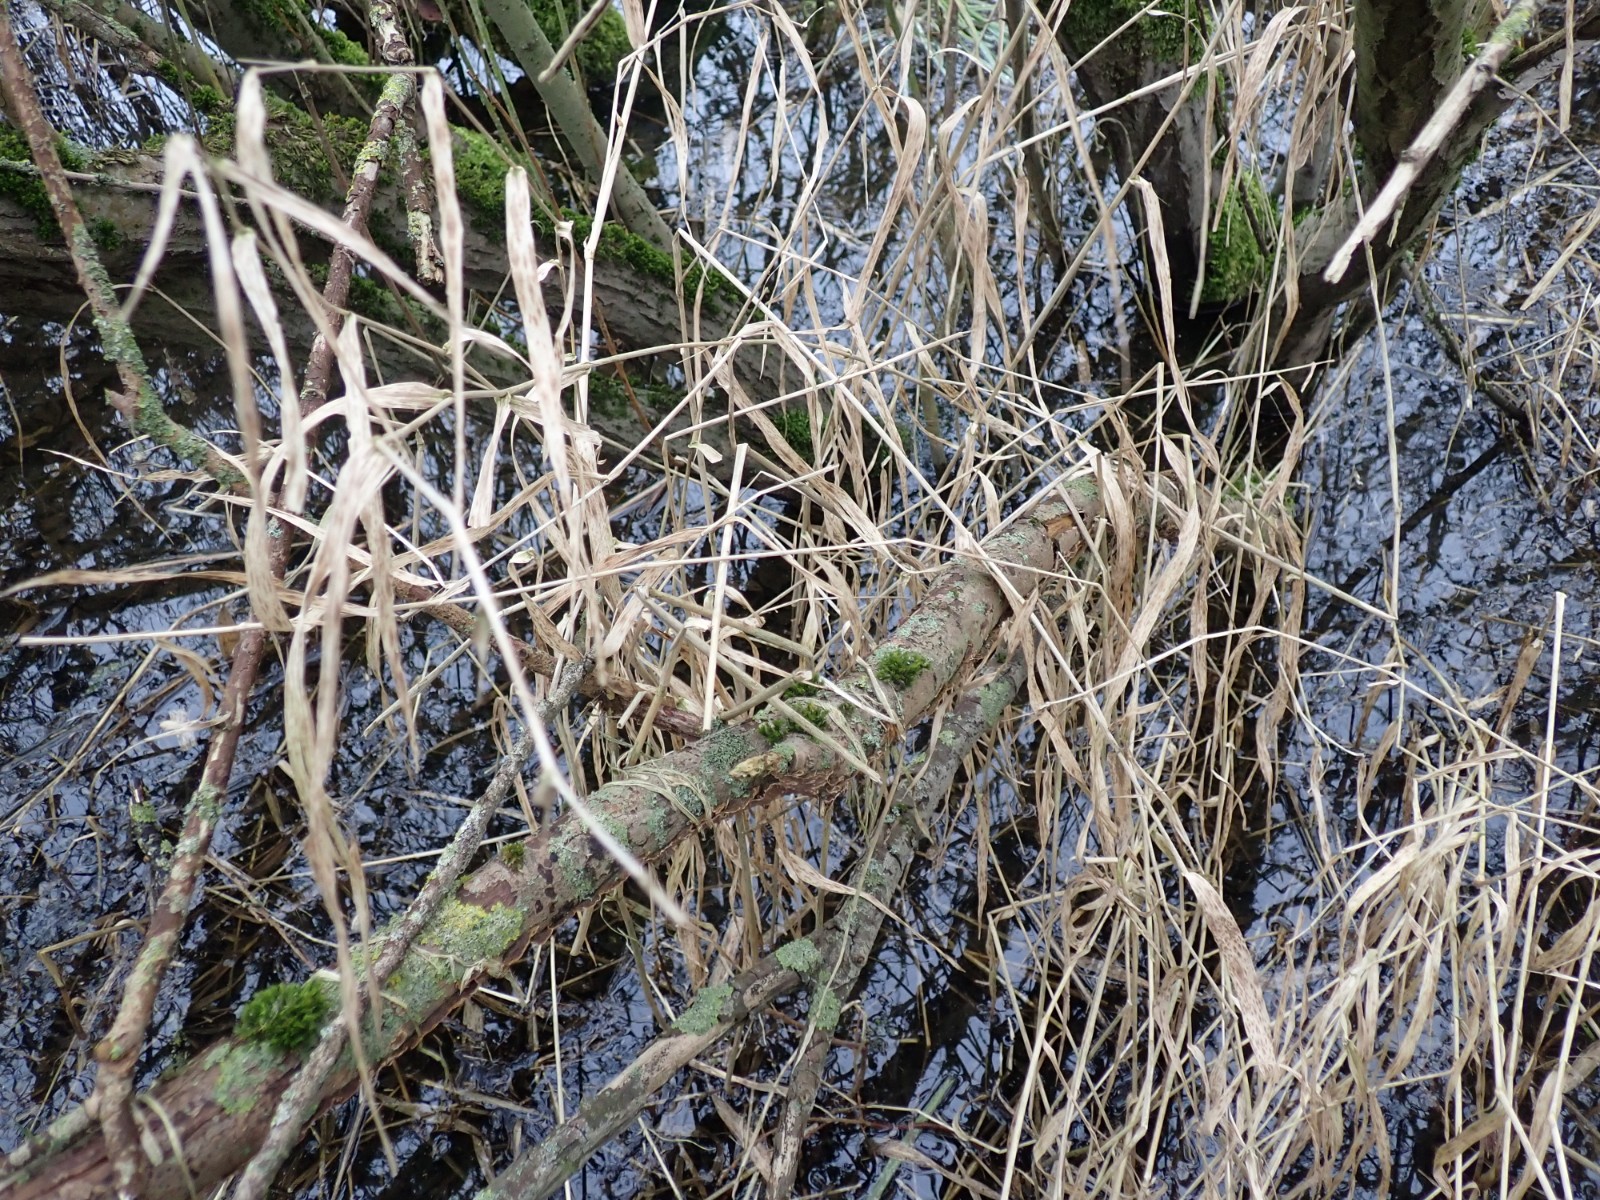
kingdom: Fungi
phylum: Basidiomycota
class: Agaricomycetes
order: Hymenochaetales
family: Hymenochaetaceae
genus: Hydnoporia
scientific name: Hydnoporia tabacina
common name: tobaksbrun ruslædersvamp
